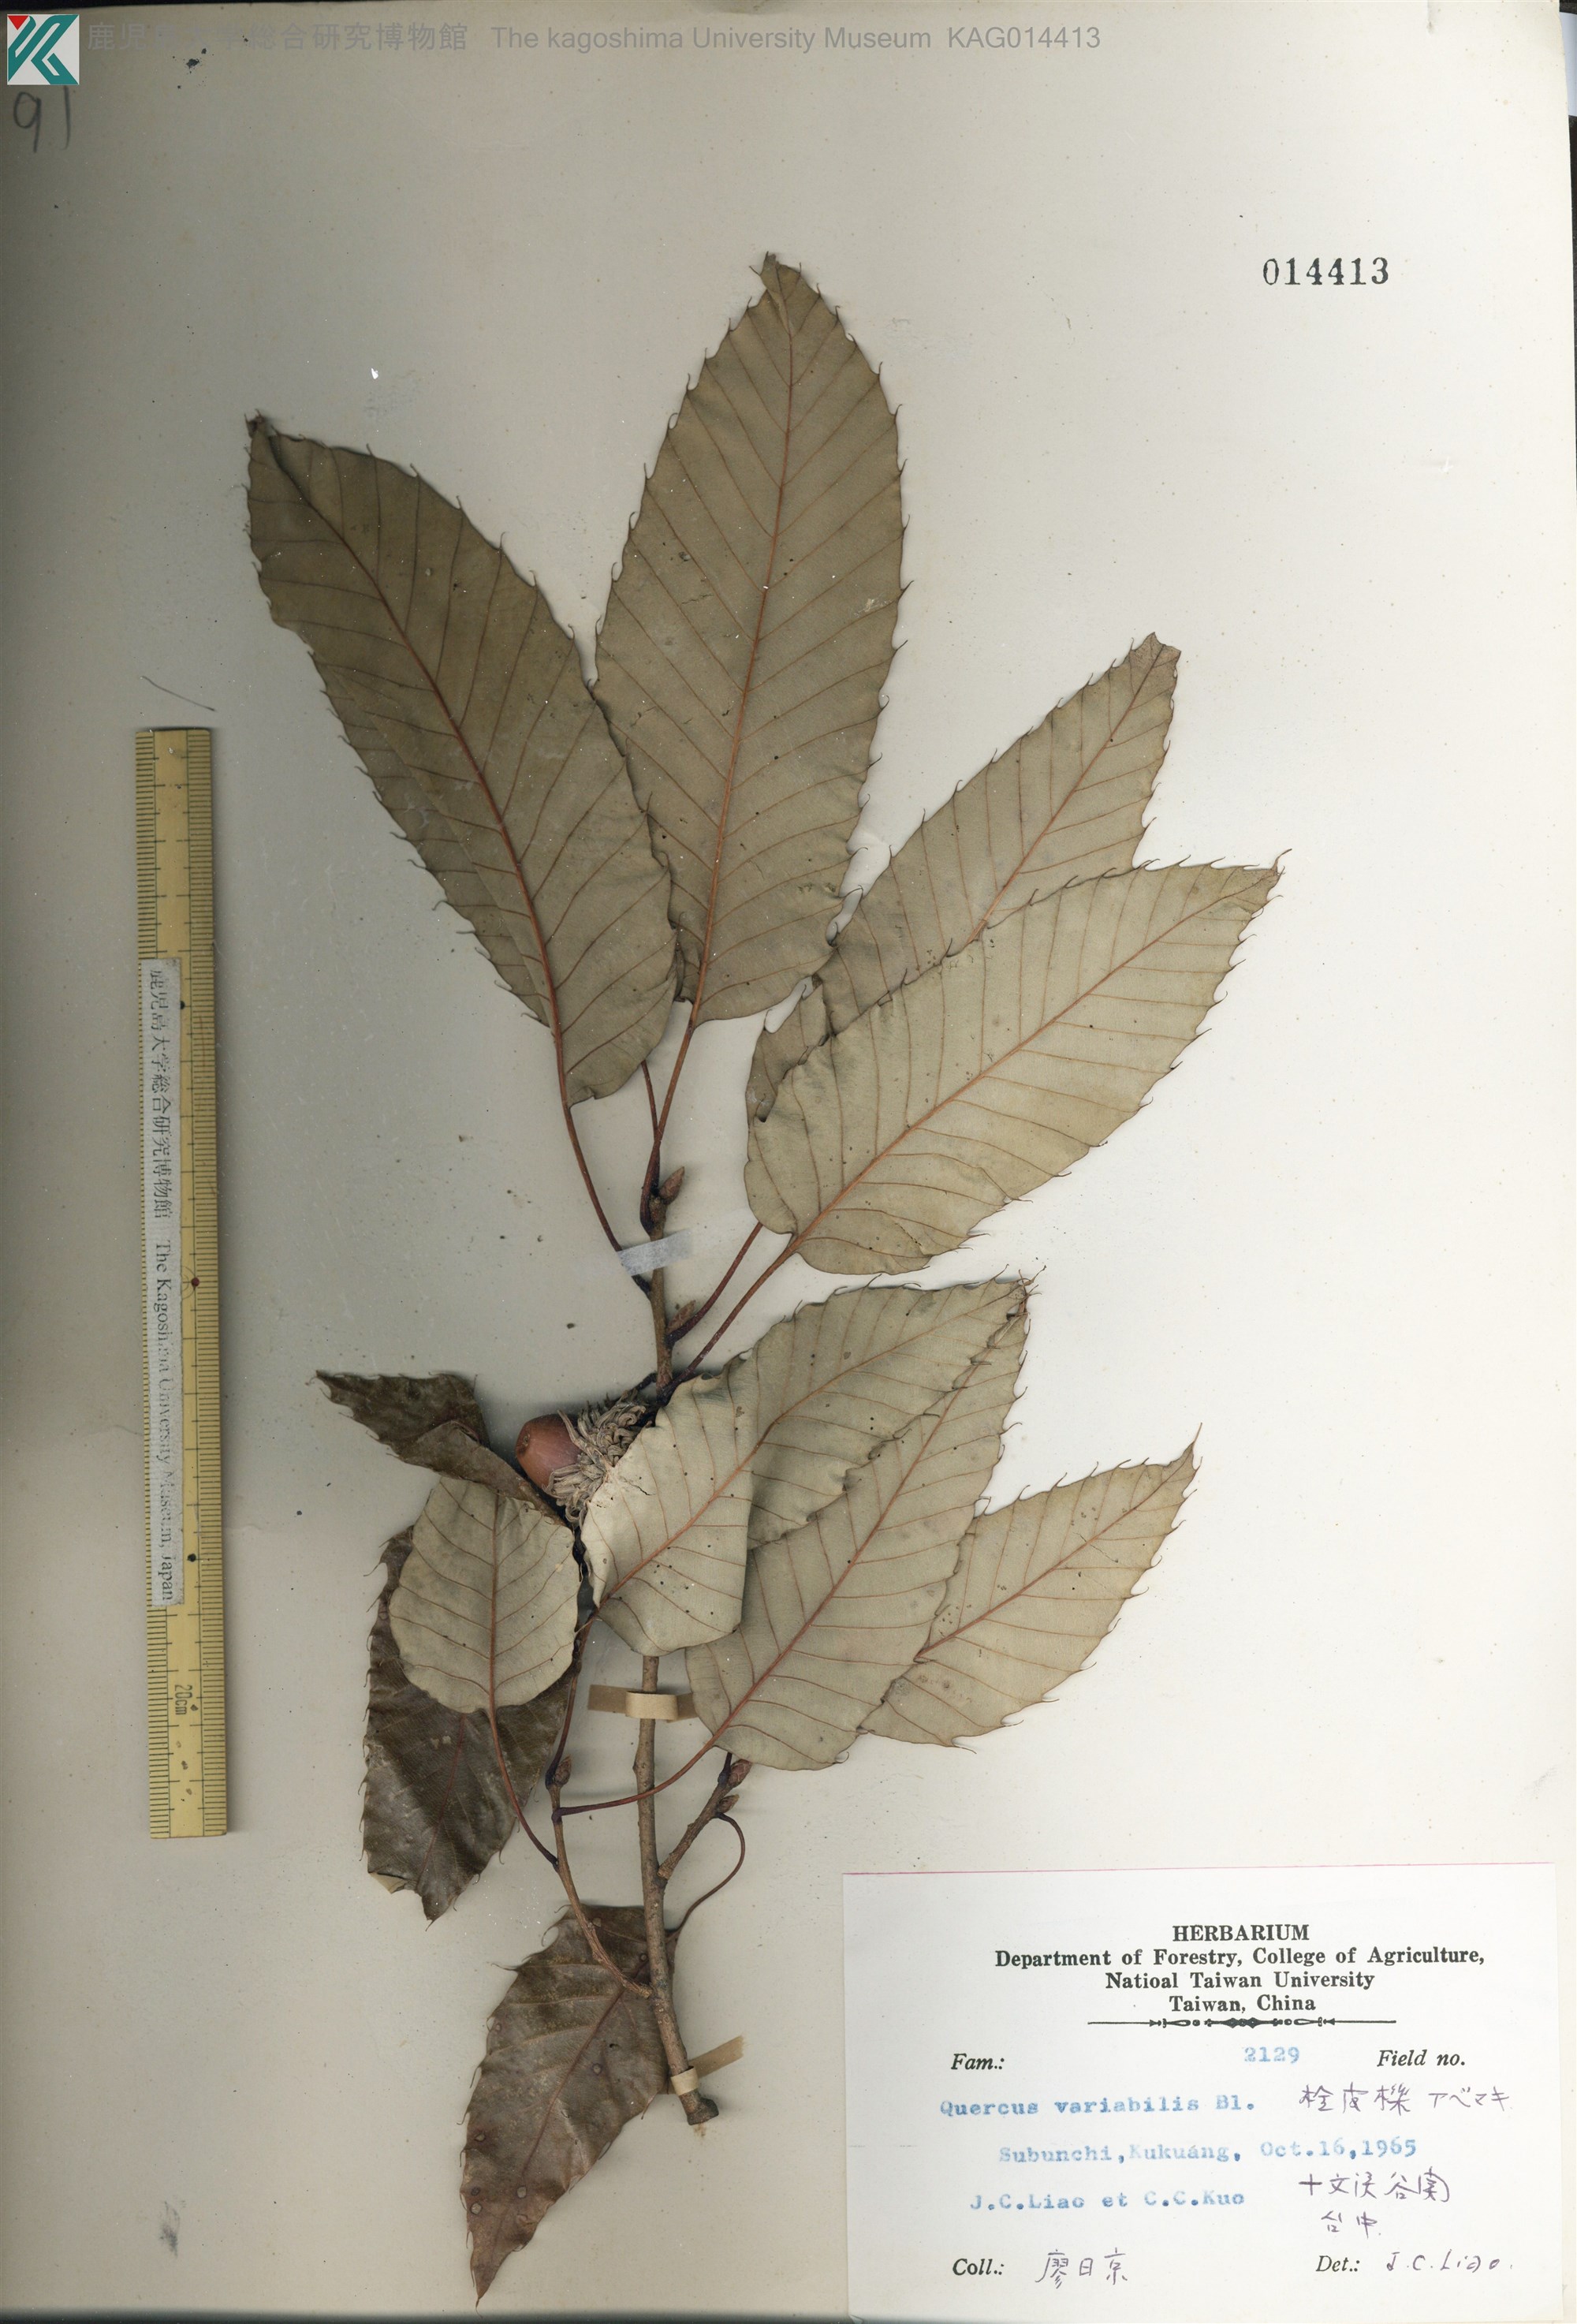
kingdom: Plantae
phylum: Tracheophyta
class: Magnoliopsida
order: Fagales
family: Fagaceae
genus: Quercus
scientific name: Quercus variabilis
